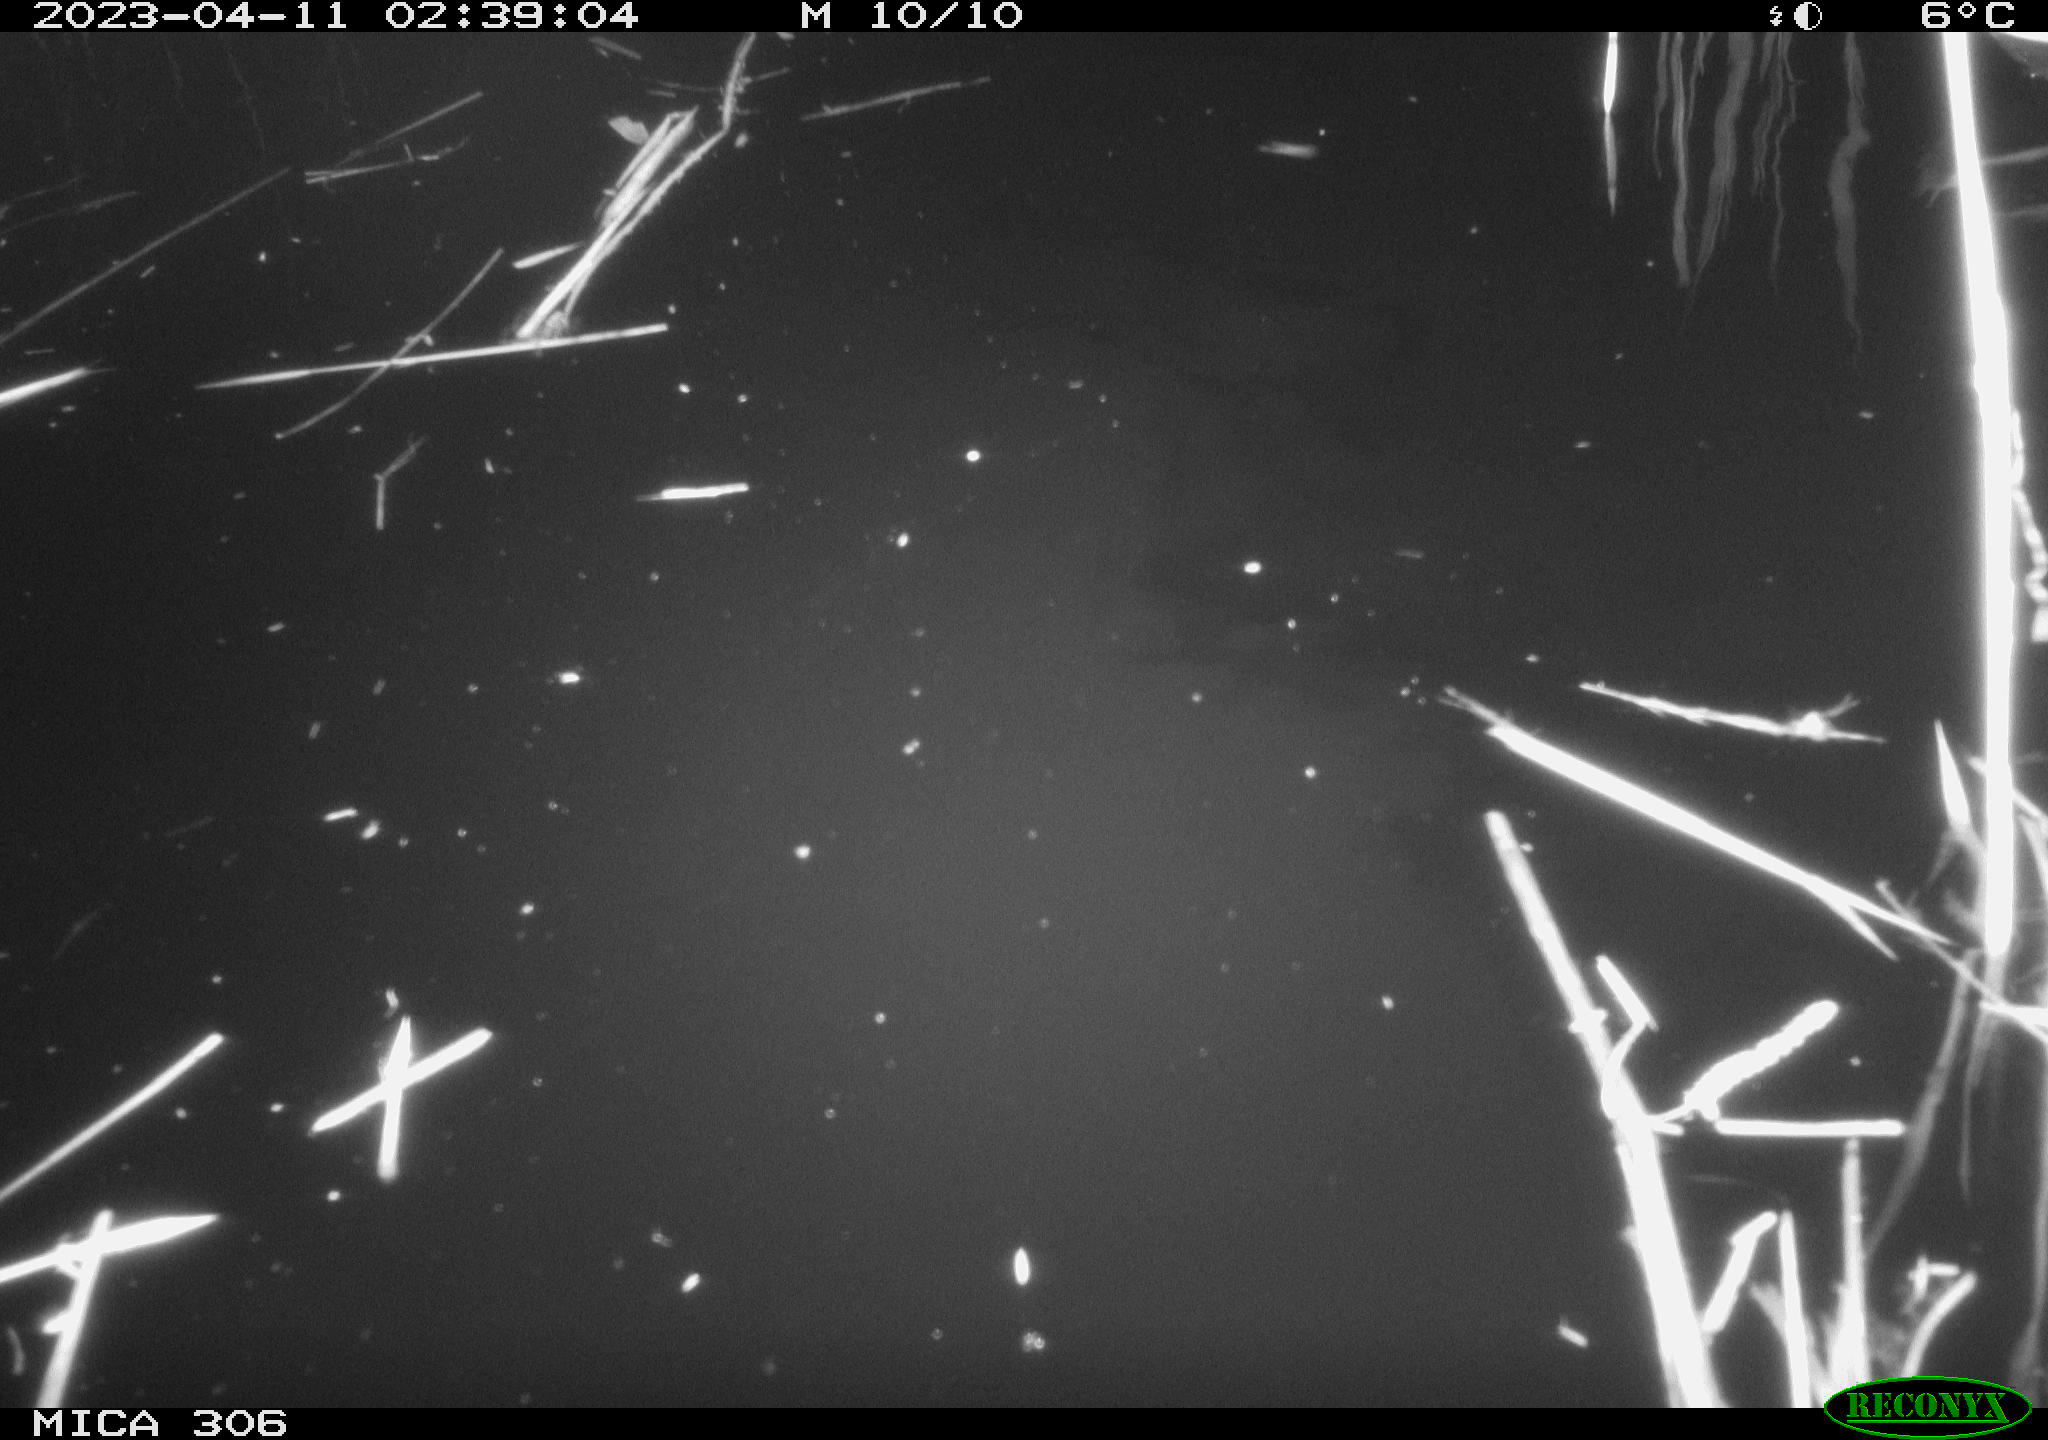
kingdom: Animalia
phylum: Chordata
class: Aves
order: Anseriformes
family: Anatidae
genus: Anas
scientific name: Anas
